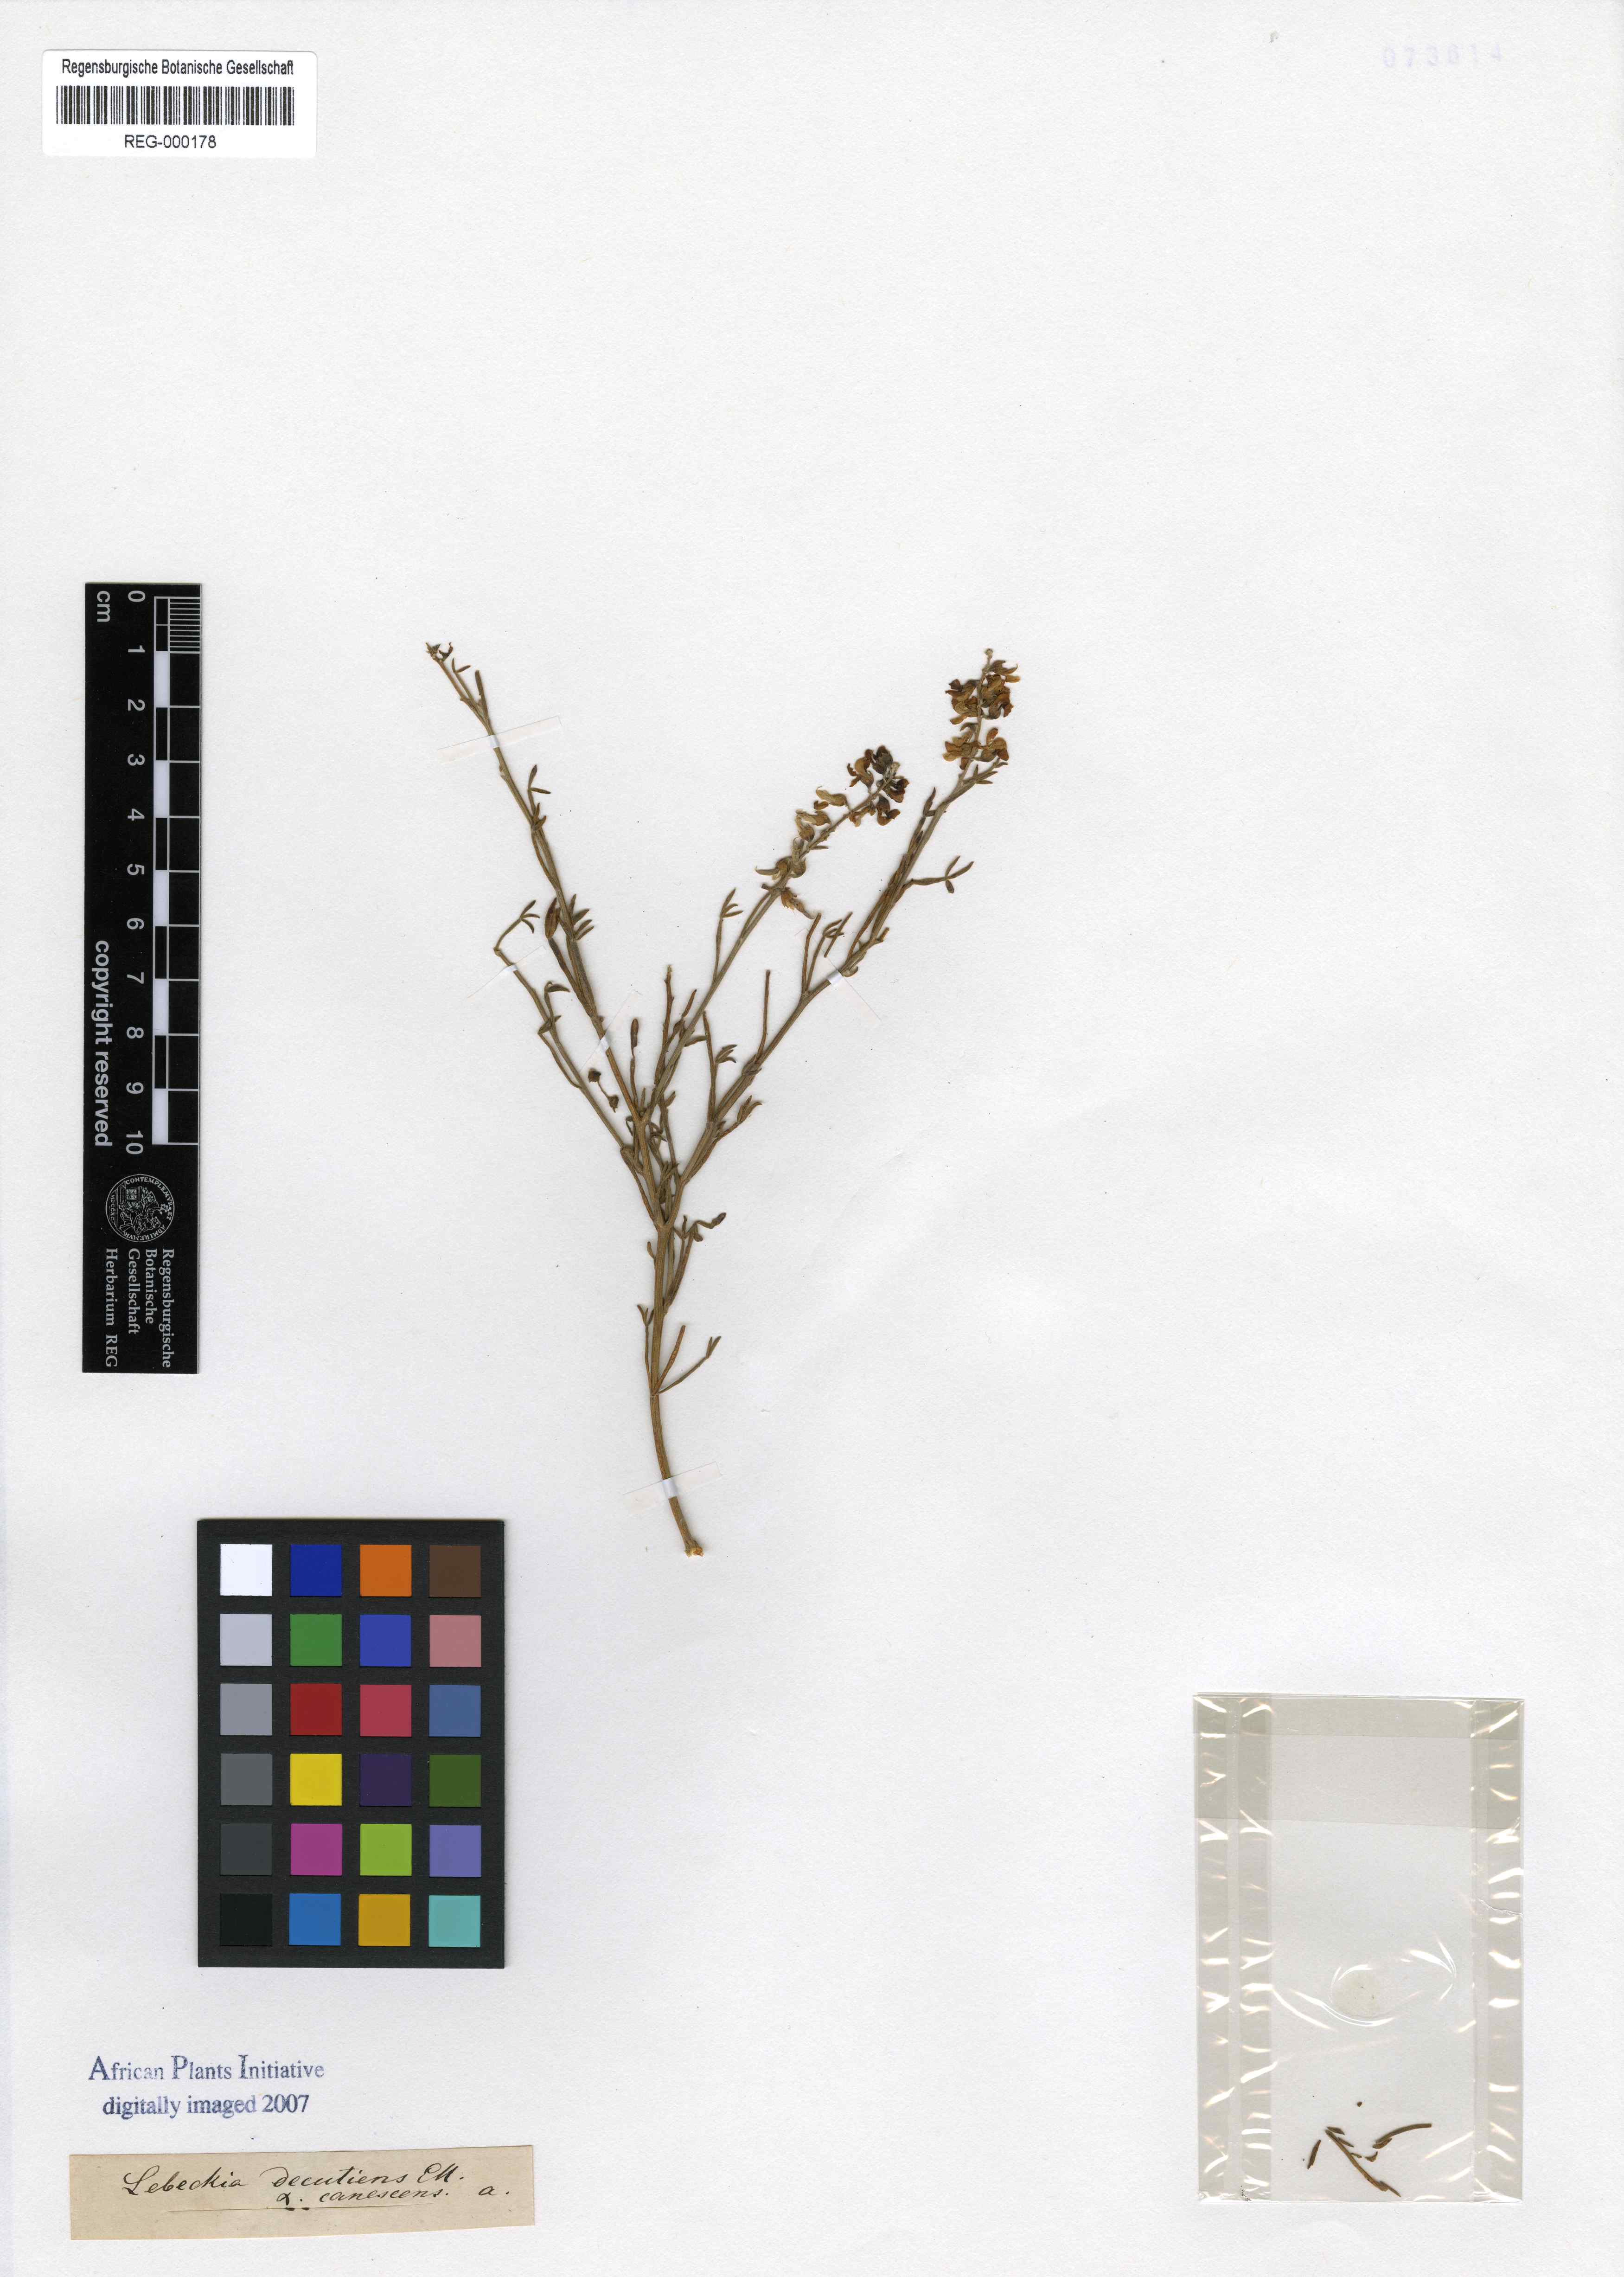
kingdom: Plantae
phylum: Tracheophyta
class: Magnoliopsida
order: Fabales
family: Fabaceae
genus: Calobota
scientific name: Calobota angustifolia
